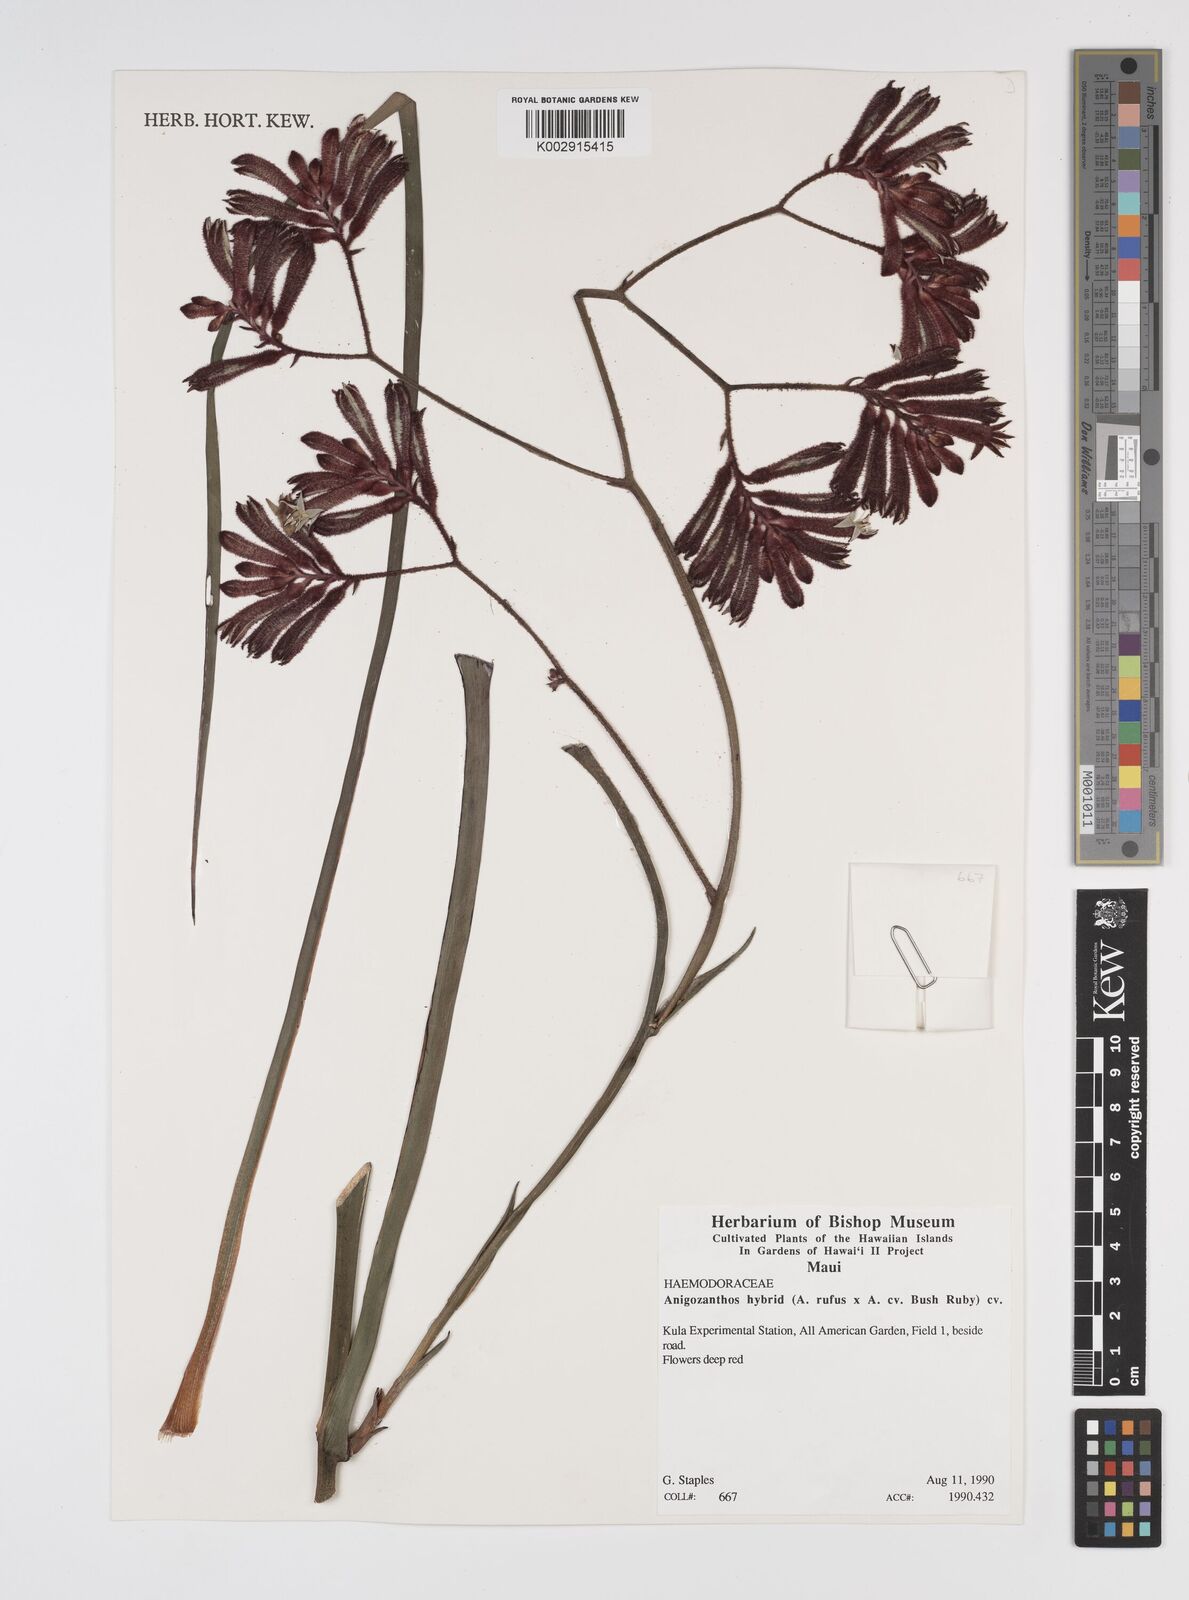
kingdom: Plantae
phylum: Tracheophyta
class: Liliopsida
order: Commelinales
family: Haemodoraceae
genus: Anigozanthos
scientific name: Anigozanthos rufus
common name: Red kangaroo-paw
